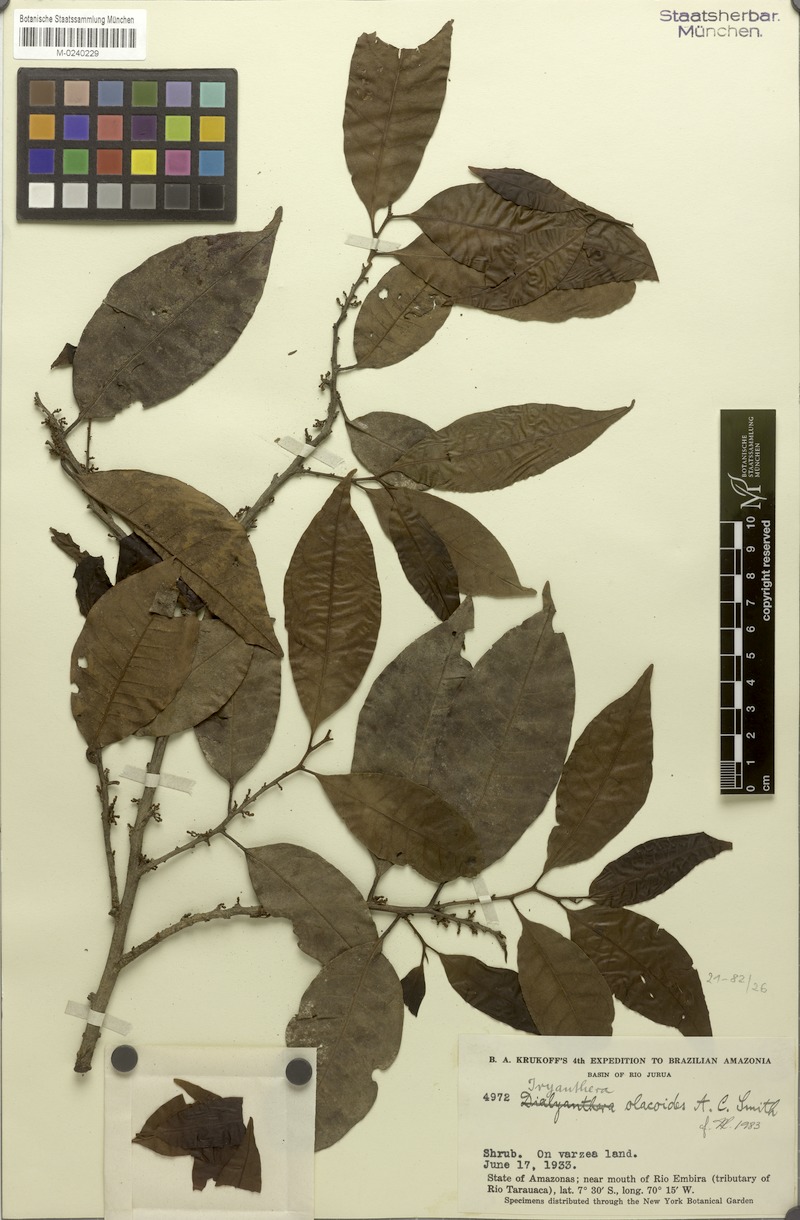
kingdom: Plantae
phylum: Tracheophyta
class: Magnoliopsida
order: Magnoliales
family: Myristicaceae
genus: Iryanthera
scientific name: Iryanthera olacoides
